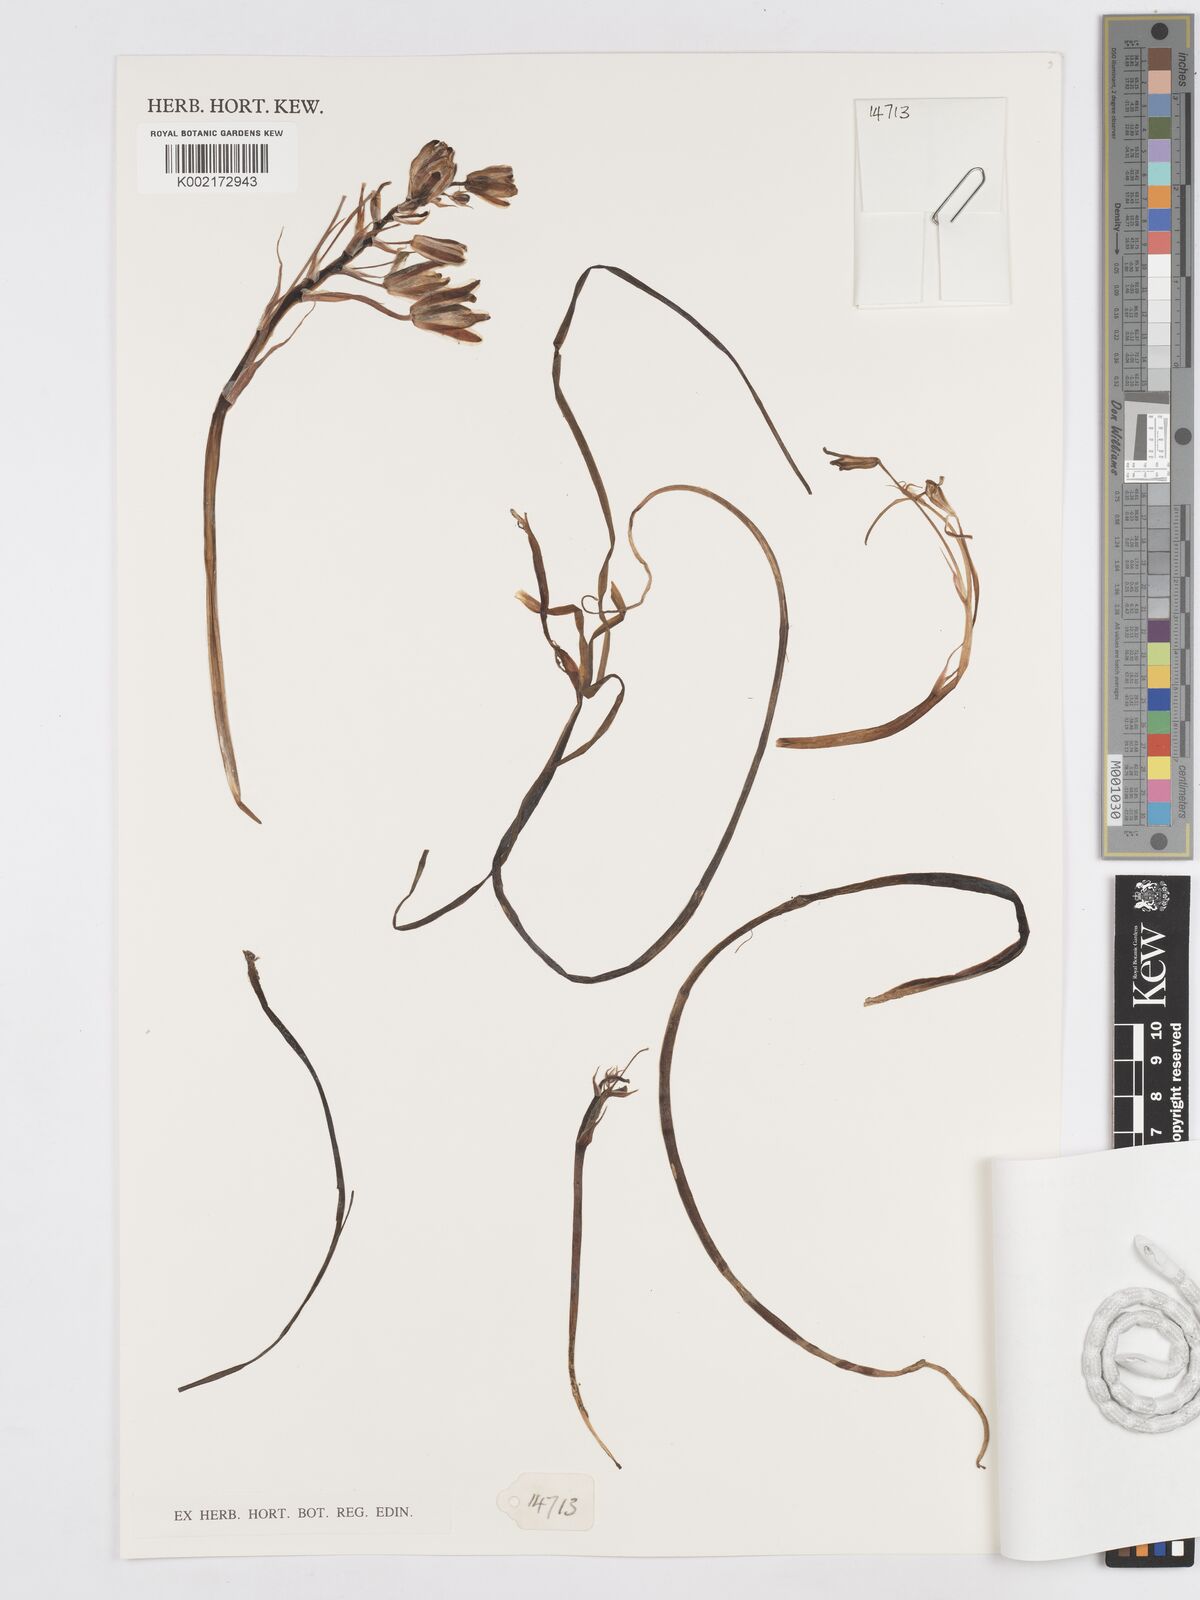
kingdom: Plantae
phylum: Tracheophyta
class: Liliopsida
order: Asparagales
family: Asparagaceae
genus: Albuca
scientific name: Albuca setosa
